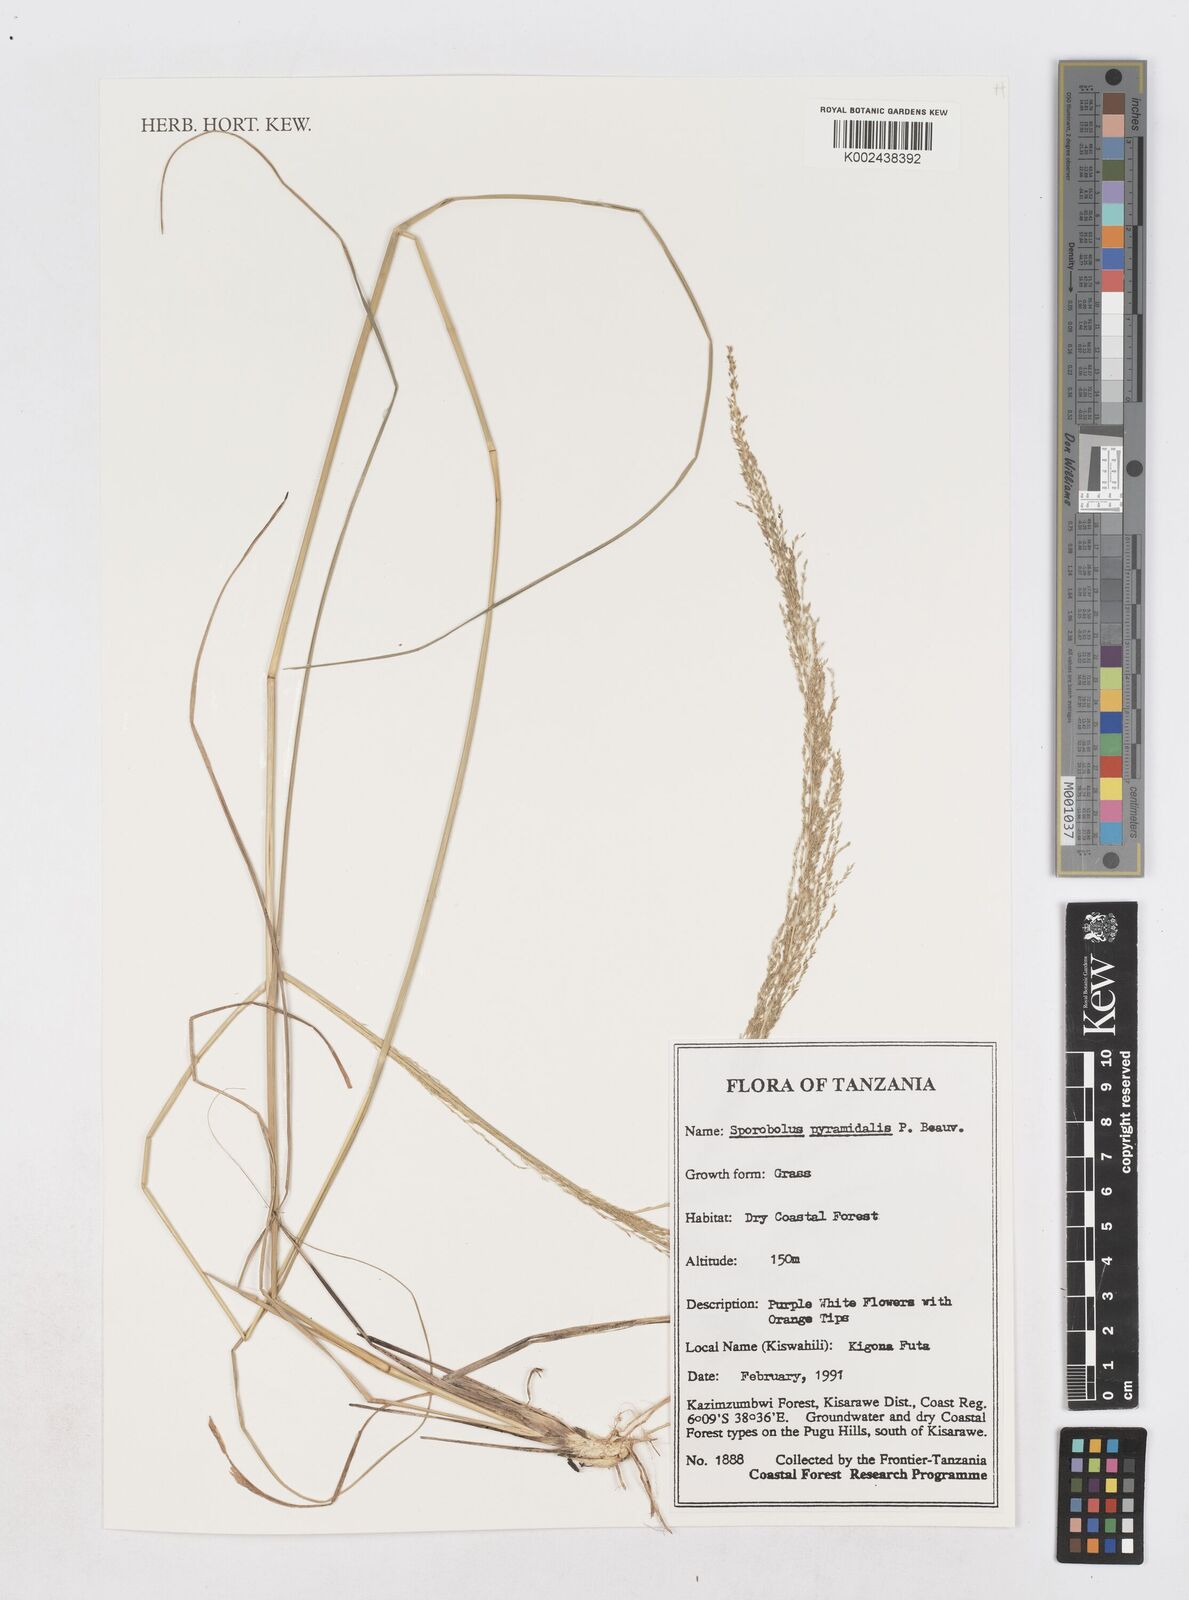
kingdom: Plantae
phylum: Tracheophyta
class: Liliopsida
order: Poales
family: Poaceae
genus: Sporobolus
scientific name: Sporobolus pyramidalis
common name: West indian dropseed
